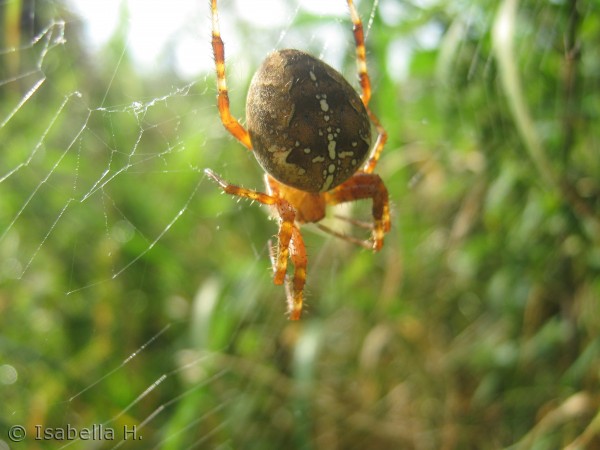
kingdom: Animalia
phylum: Arthropoda
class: Arachnida
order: Araneae
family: Araneidae
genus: Araneus
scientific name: Araneus diadematus
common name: Korsedderkop
